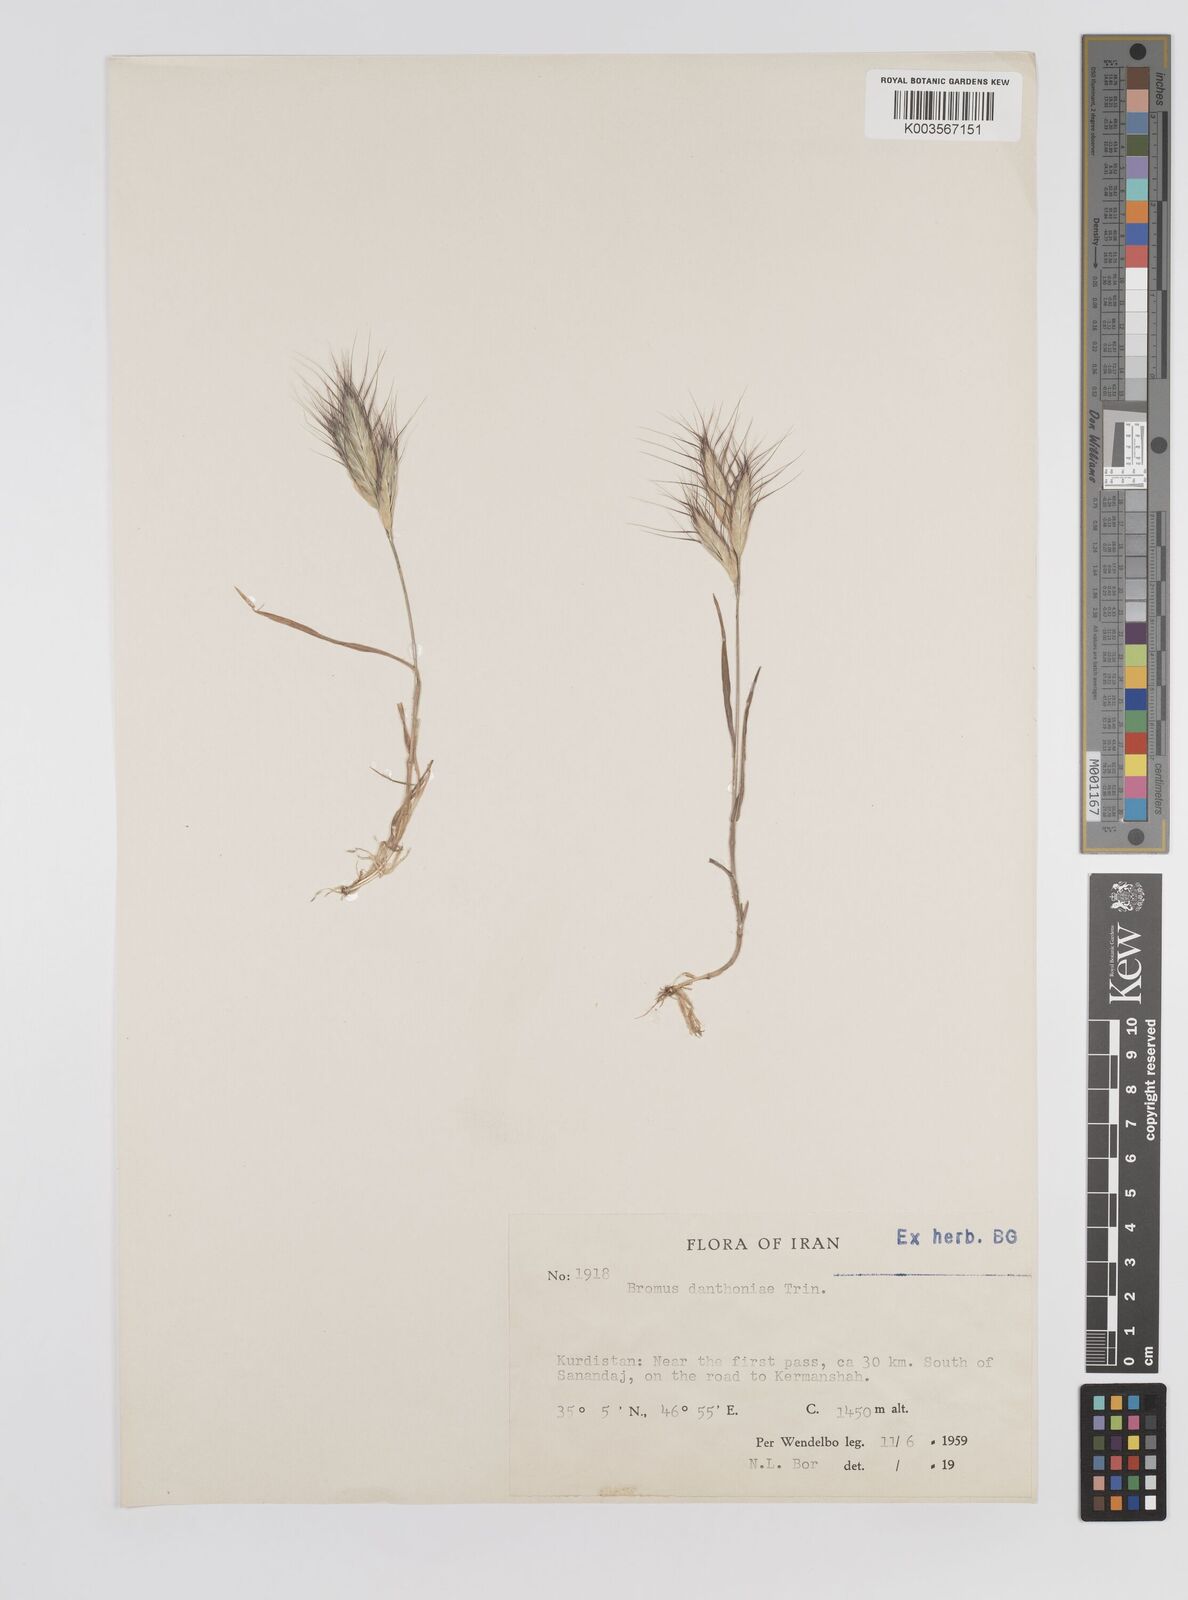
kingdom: Plantae
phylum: Tracheophyta
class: Liliopsida
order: Poales
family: Poaceae
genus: Bromus
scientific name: Bromus danthoniae
